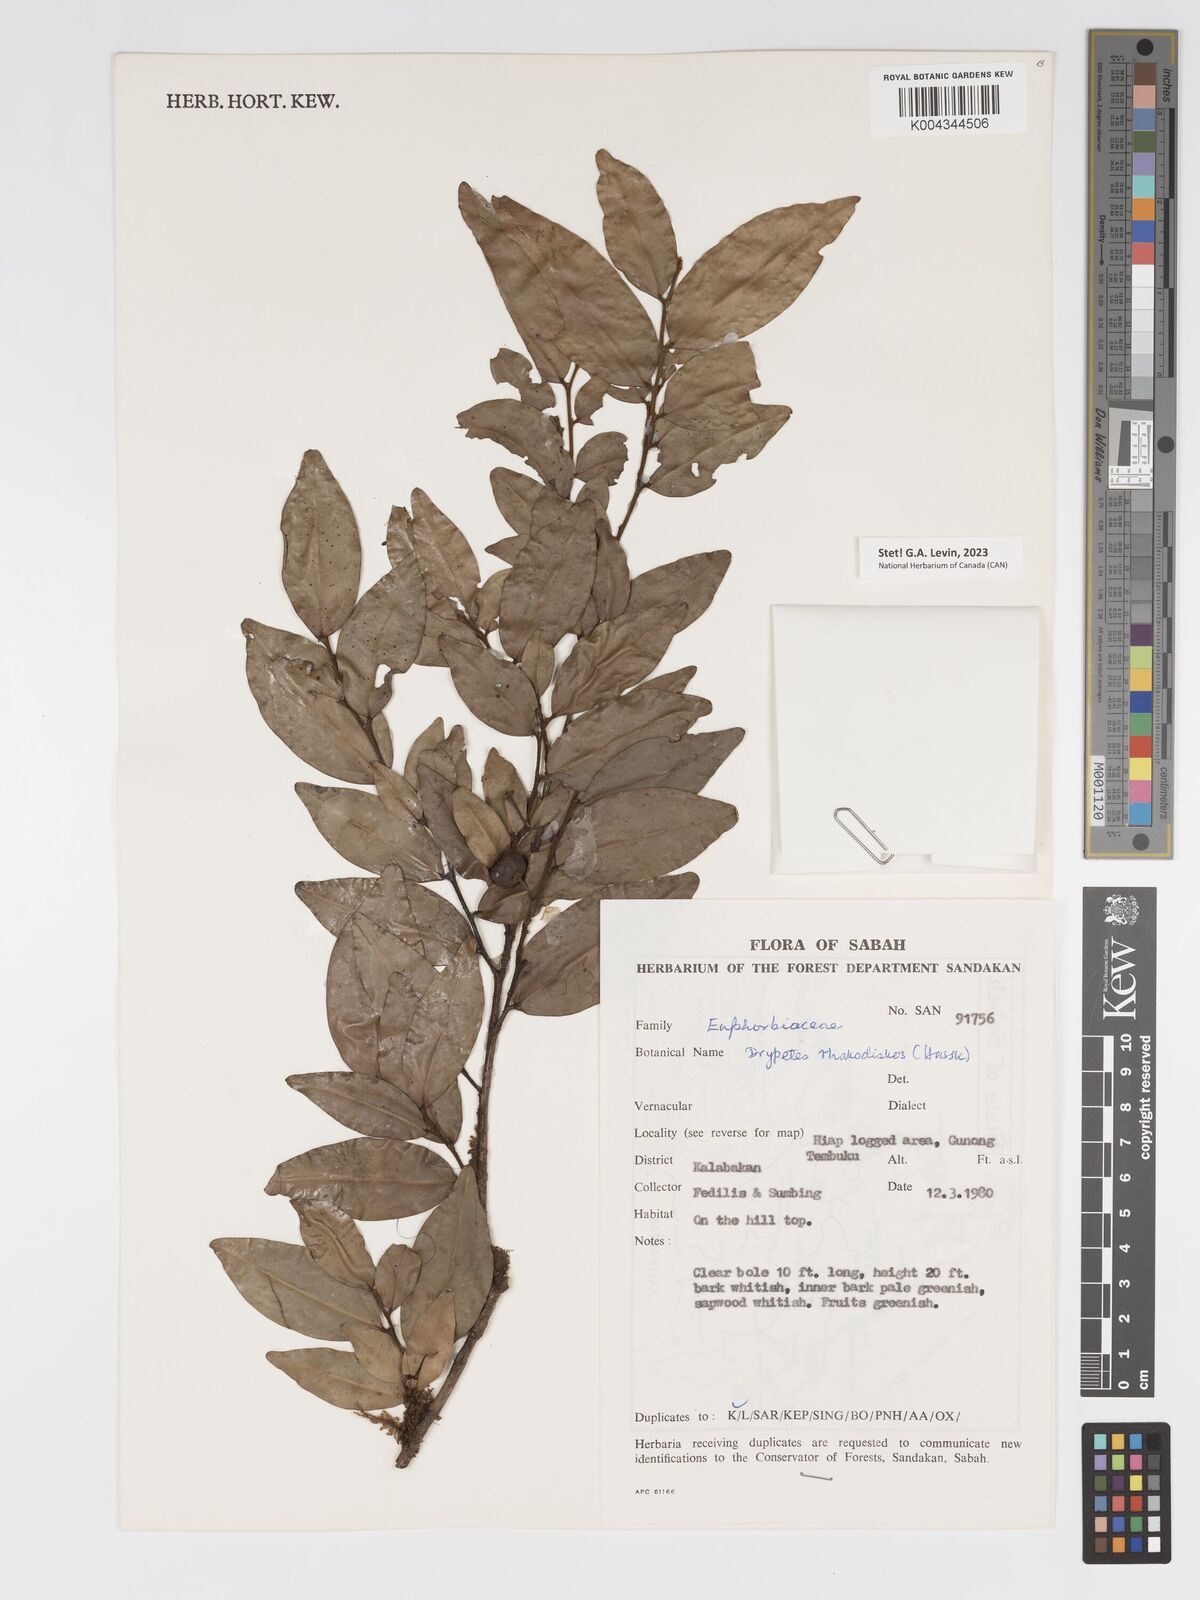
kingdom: Plantae
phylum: Tracheophyta
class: Magnoliopsida
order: Malpighiales
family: Putranjivaceae
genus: Drypetes
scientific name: Drypetes rhakodiskos
